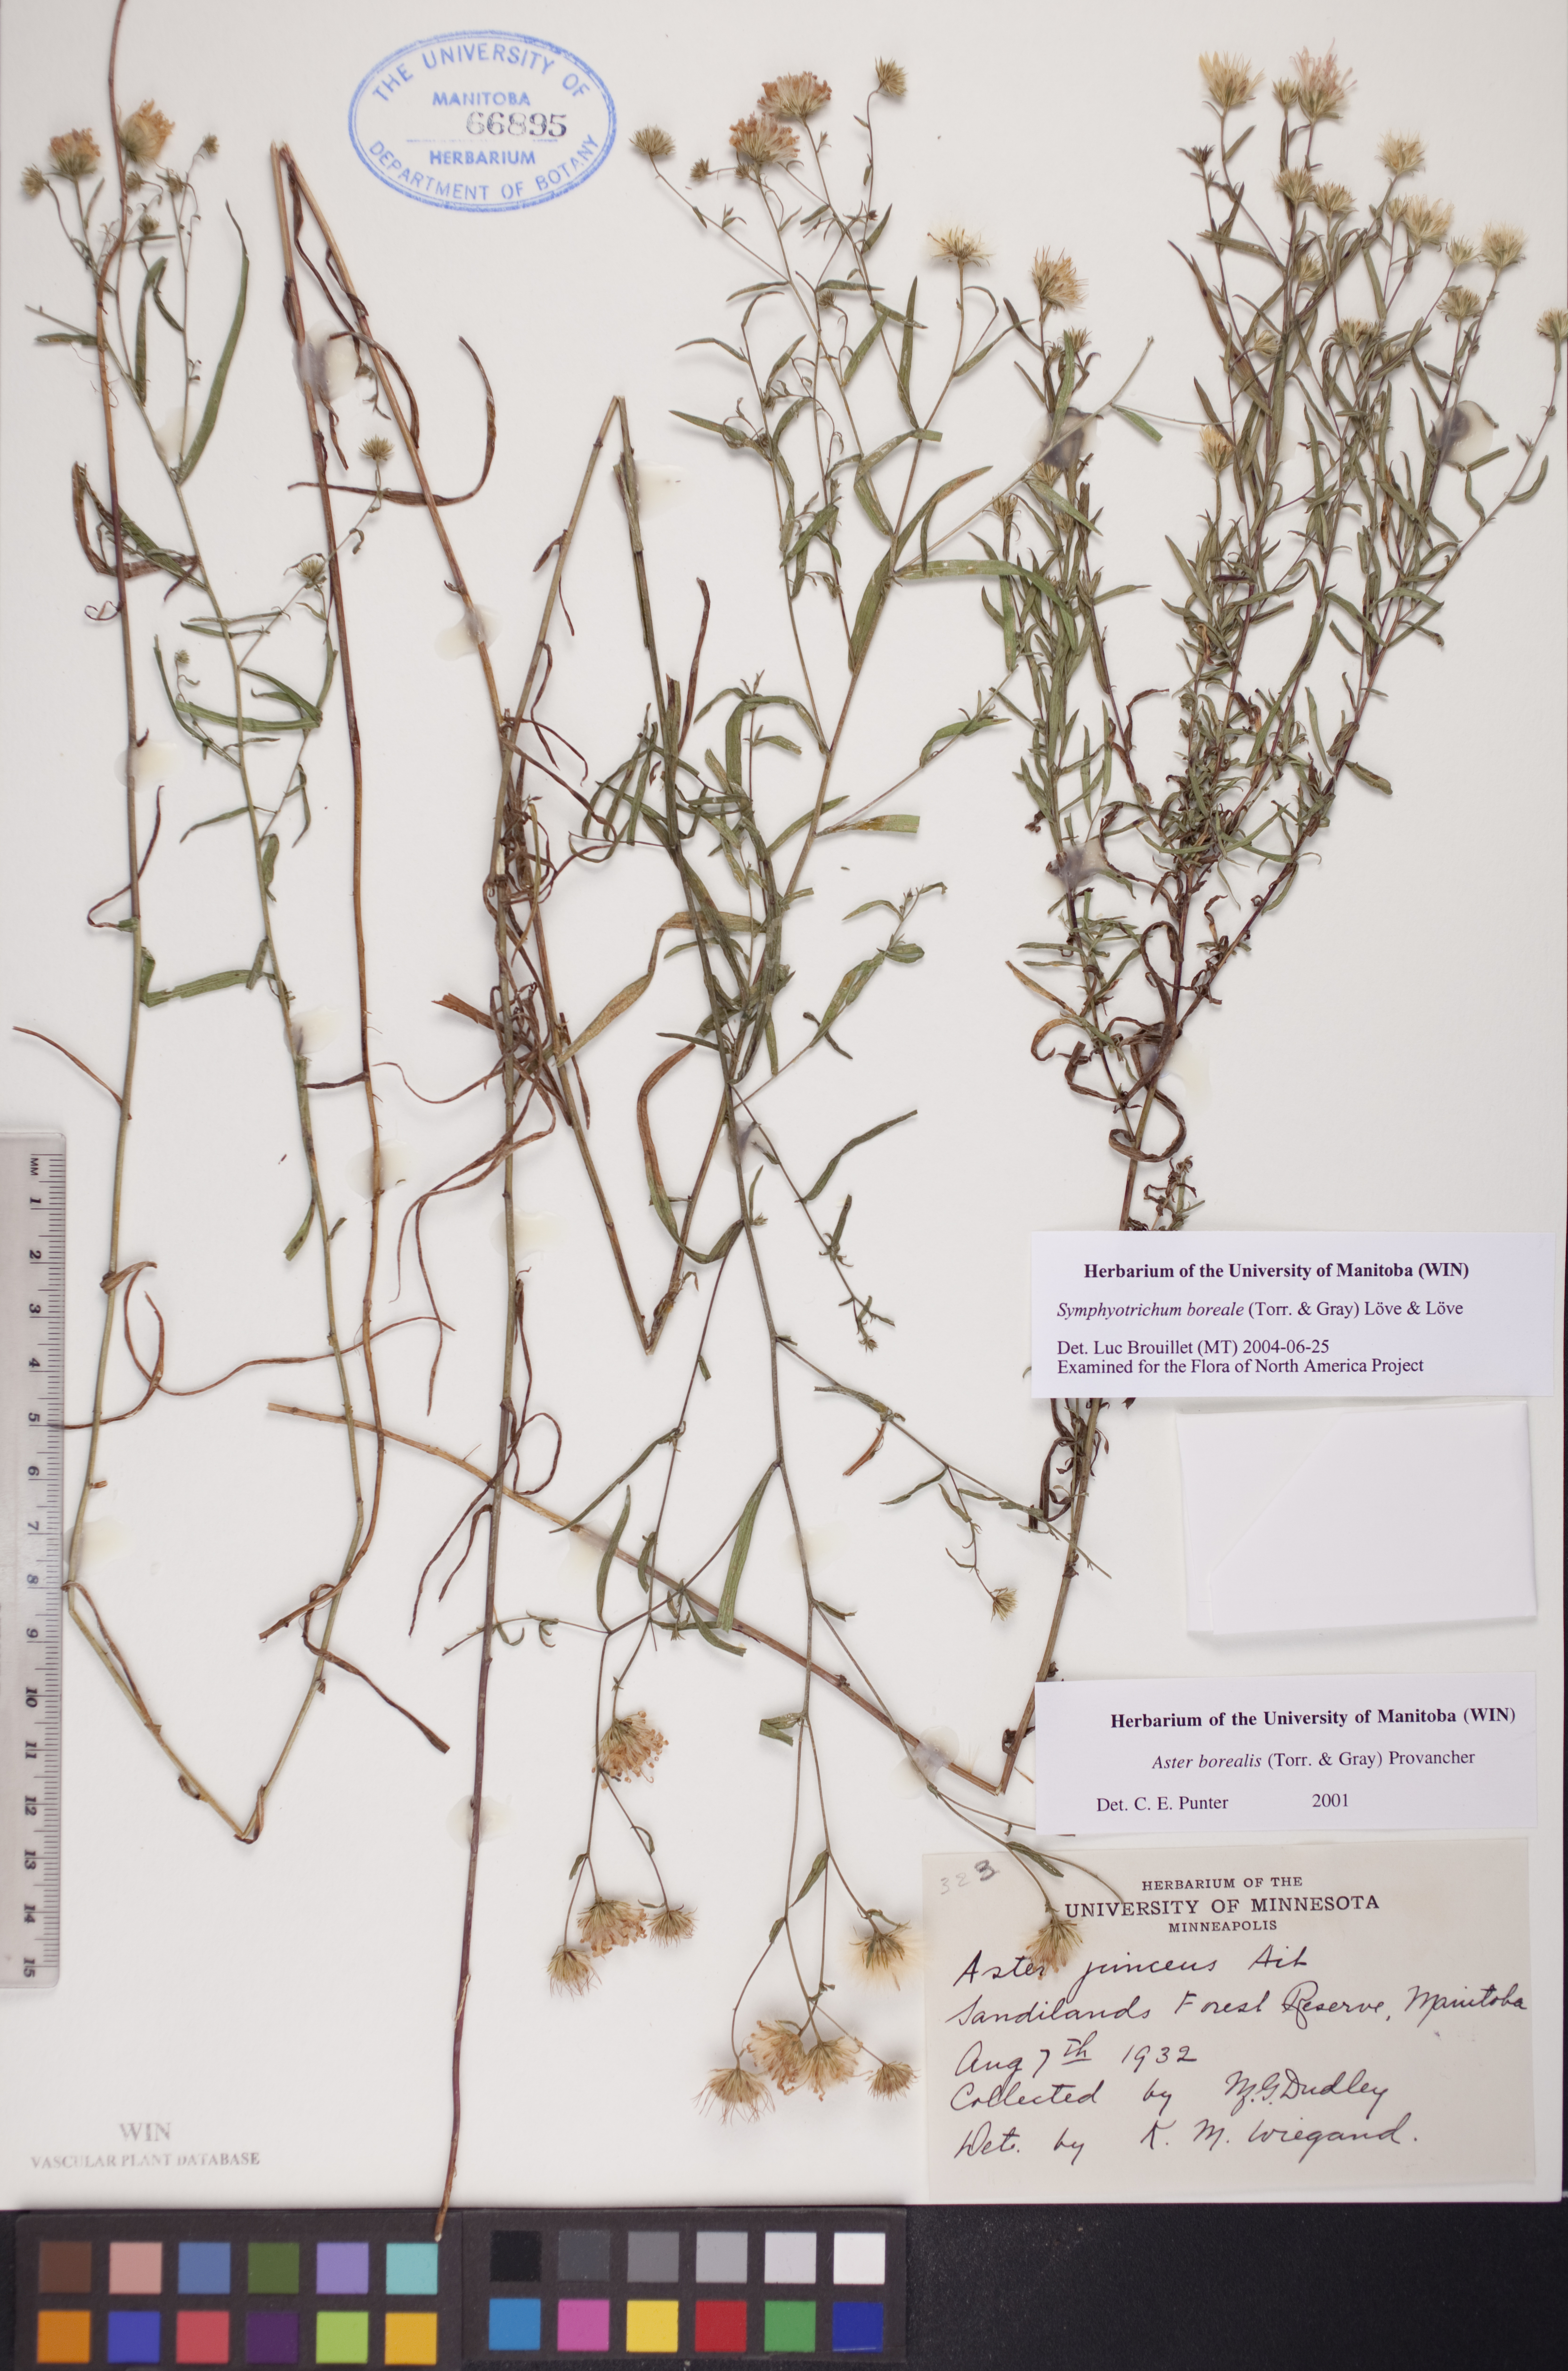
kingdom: Plantae
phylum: Tracheophyta
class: Magnoliopsida
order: Asterales
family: Asteraceae
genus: Symphyotrichum
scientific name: Symphyotrichum boreale
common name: Northern bog aster
